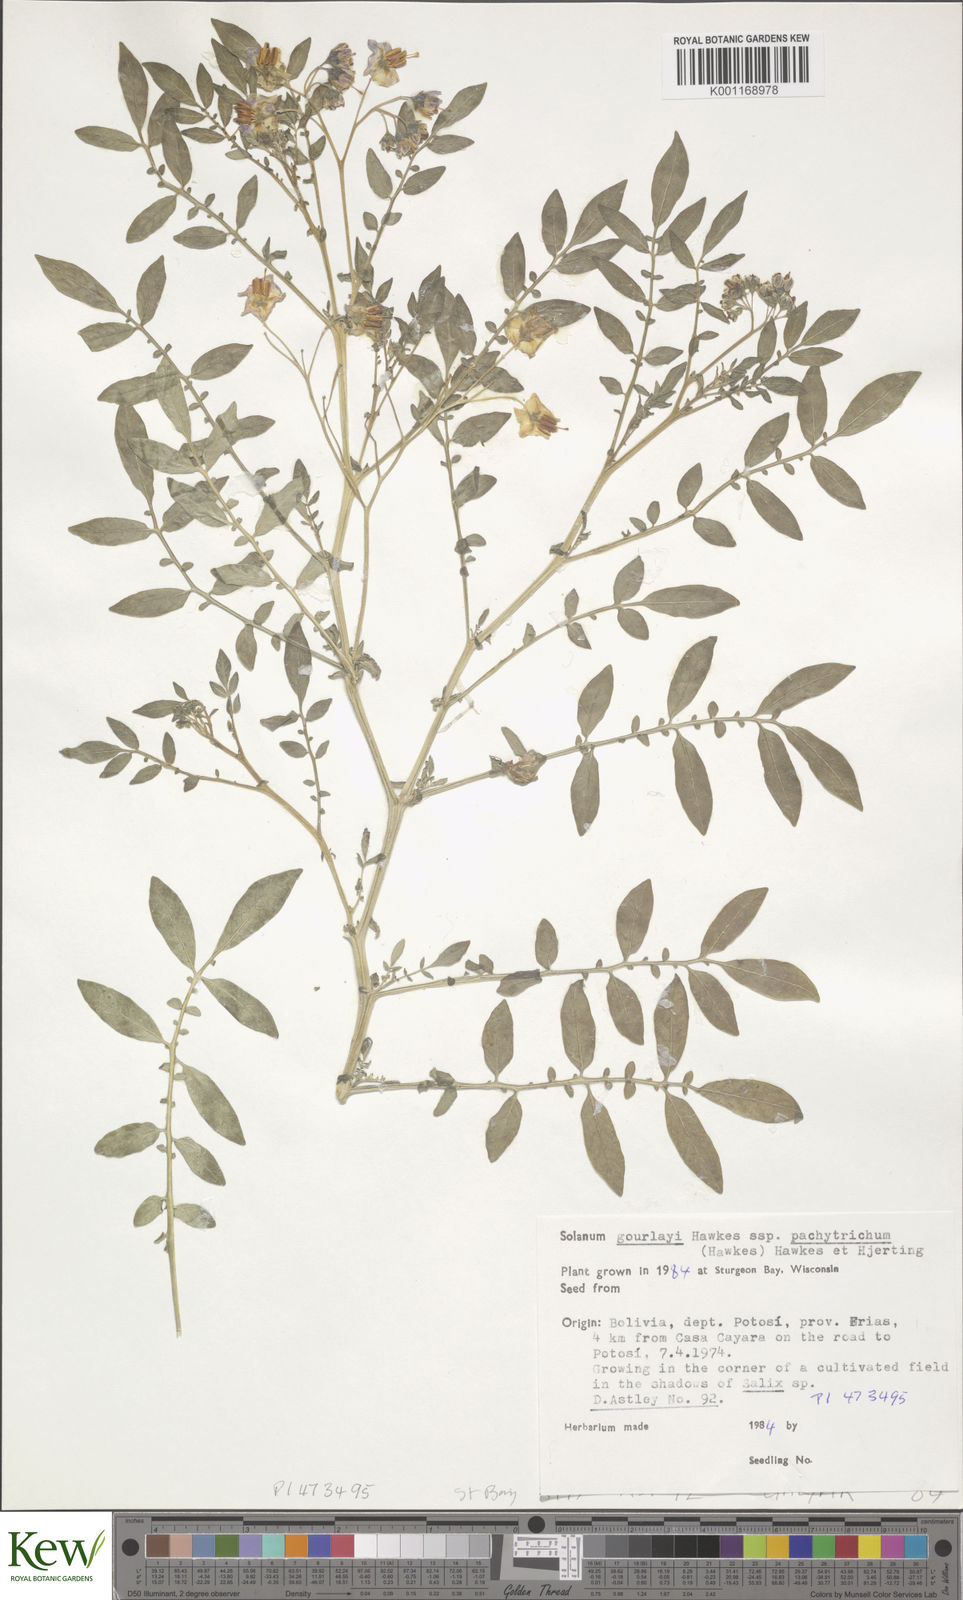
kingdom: Plantae
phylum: Tracheophyta
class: Magnoliopsida
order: Solanales
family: Solanaceae
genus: Solanum
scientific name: Solanum brevicaule
